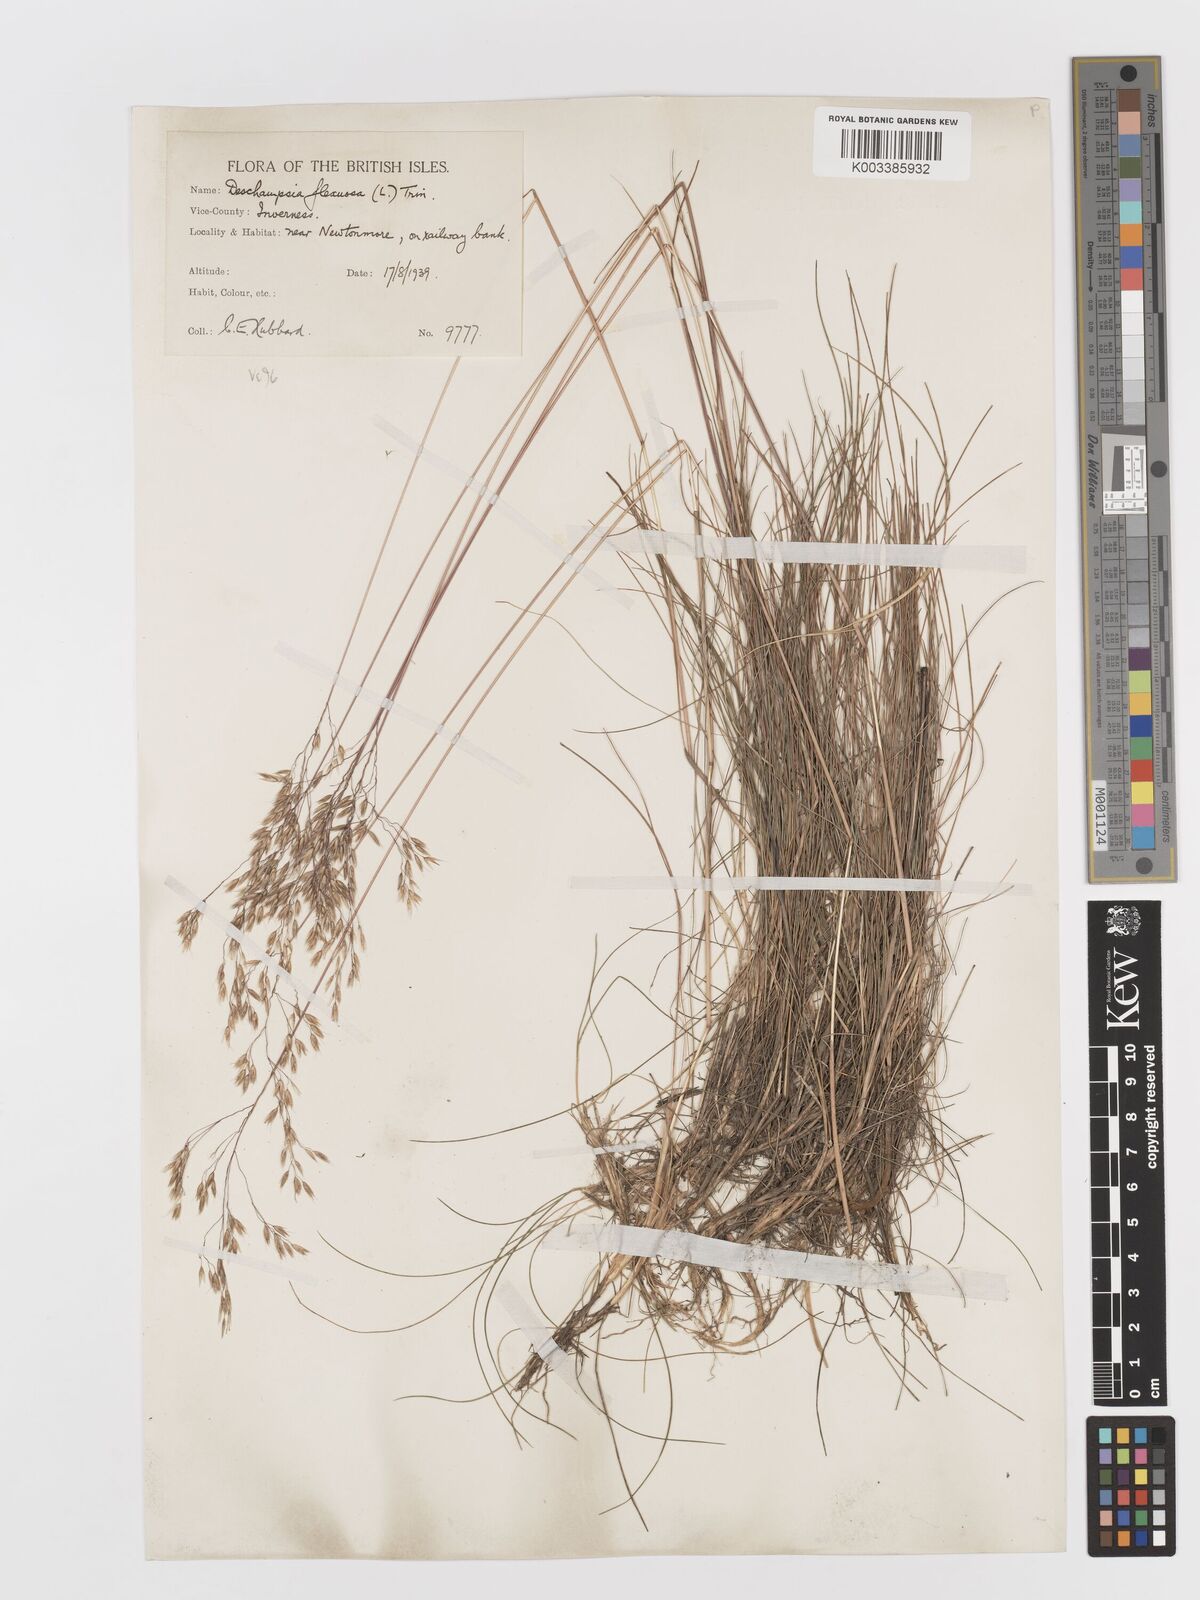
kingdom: Plantae
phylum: Tracheophyta
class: Liliopsida
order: Poales
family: Poaceae
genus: Avenella
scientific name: Avenella flexuosa
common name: Wavy hairgrass
